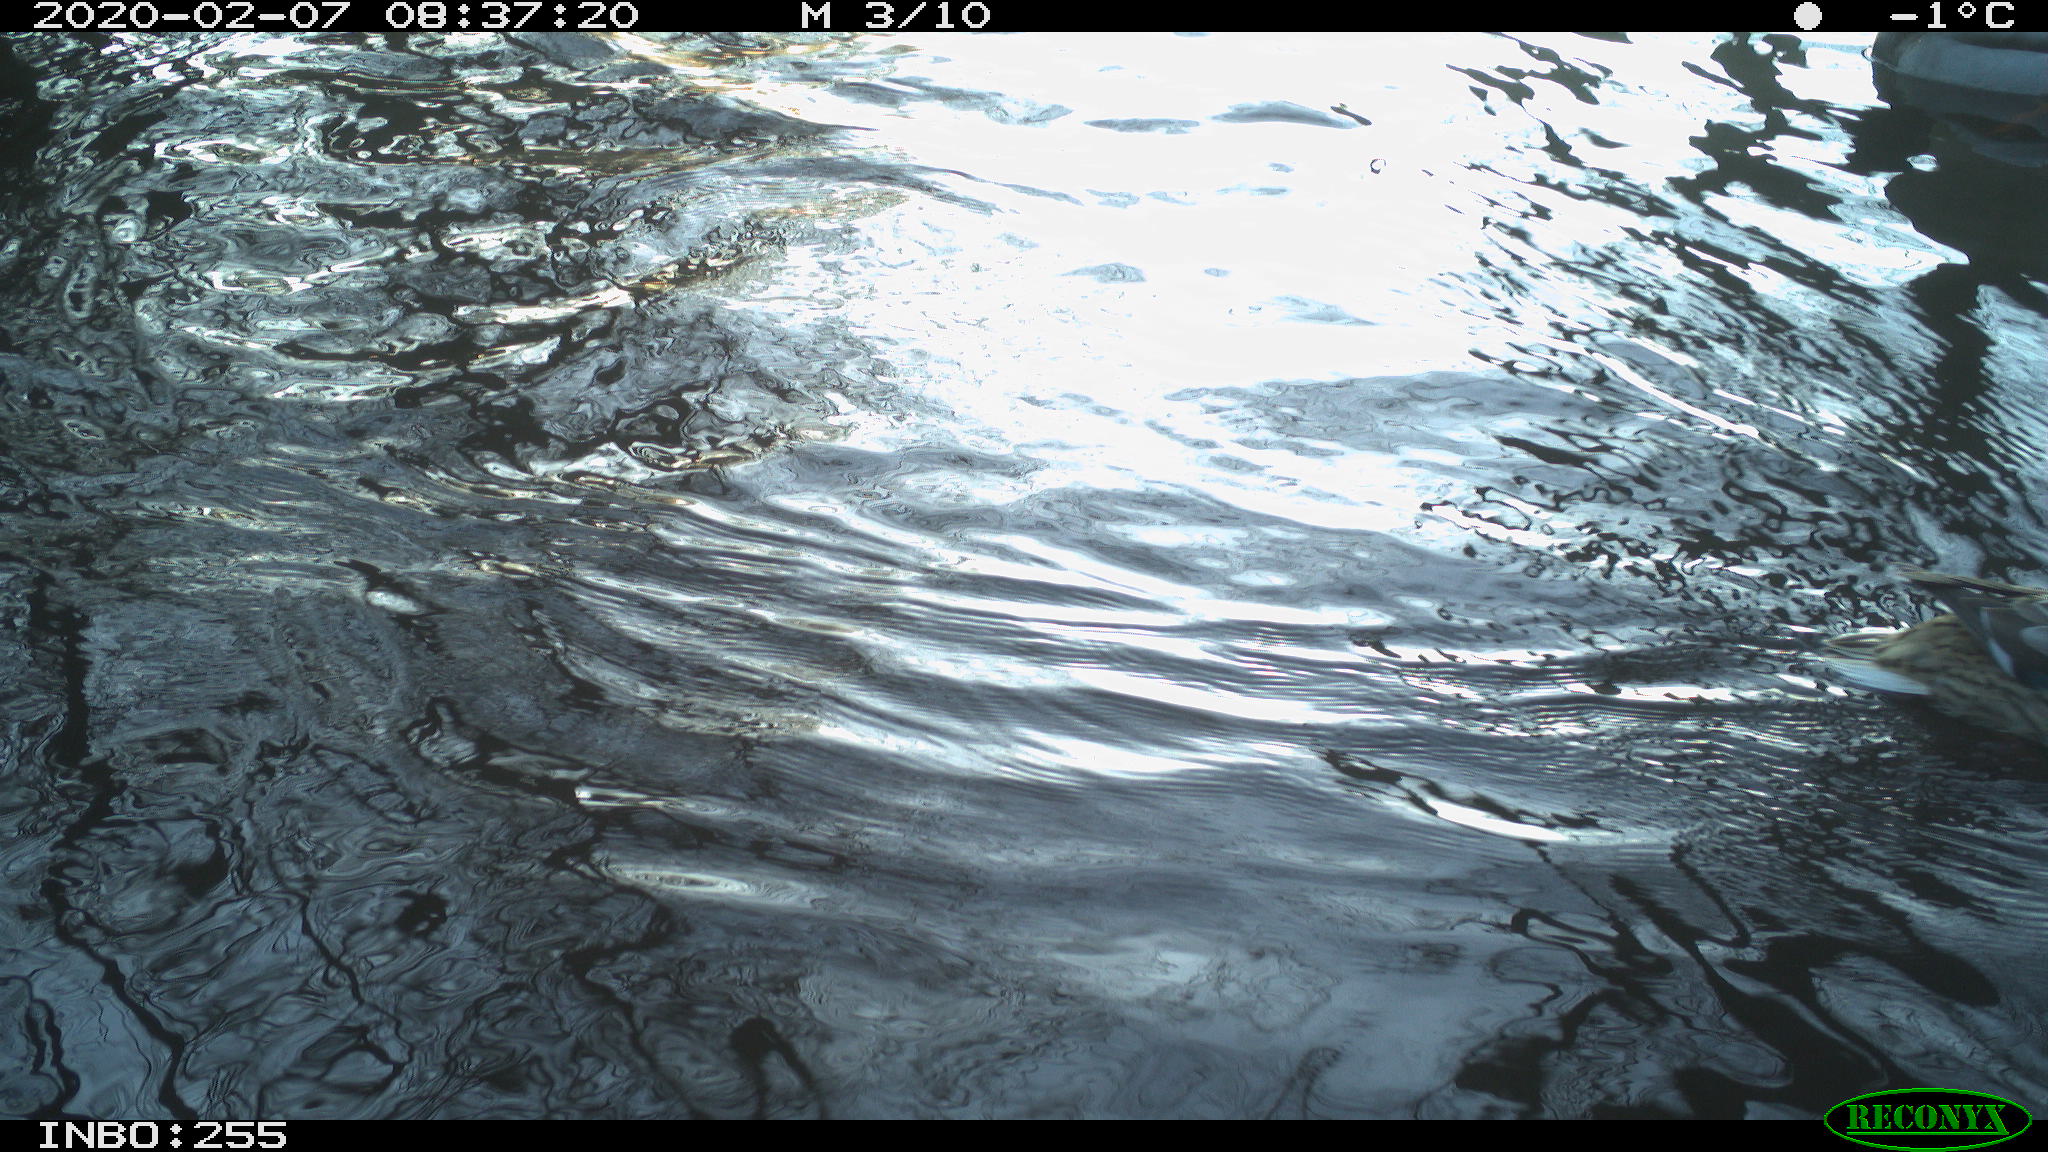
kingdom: Animalia
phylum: Chordata
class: Aves
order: Anseriformes
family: Anatidae
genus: Anas
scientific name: Anas platyrhynchos
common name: Mallard
